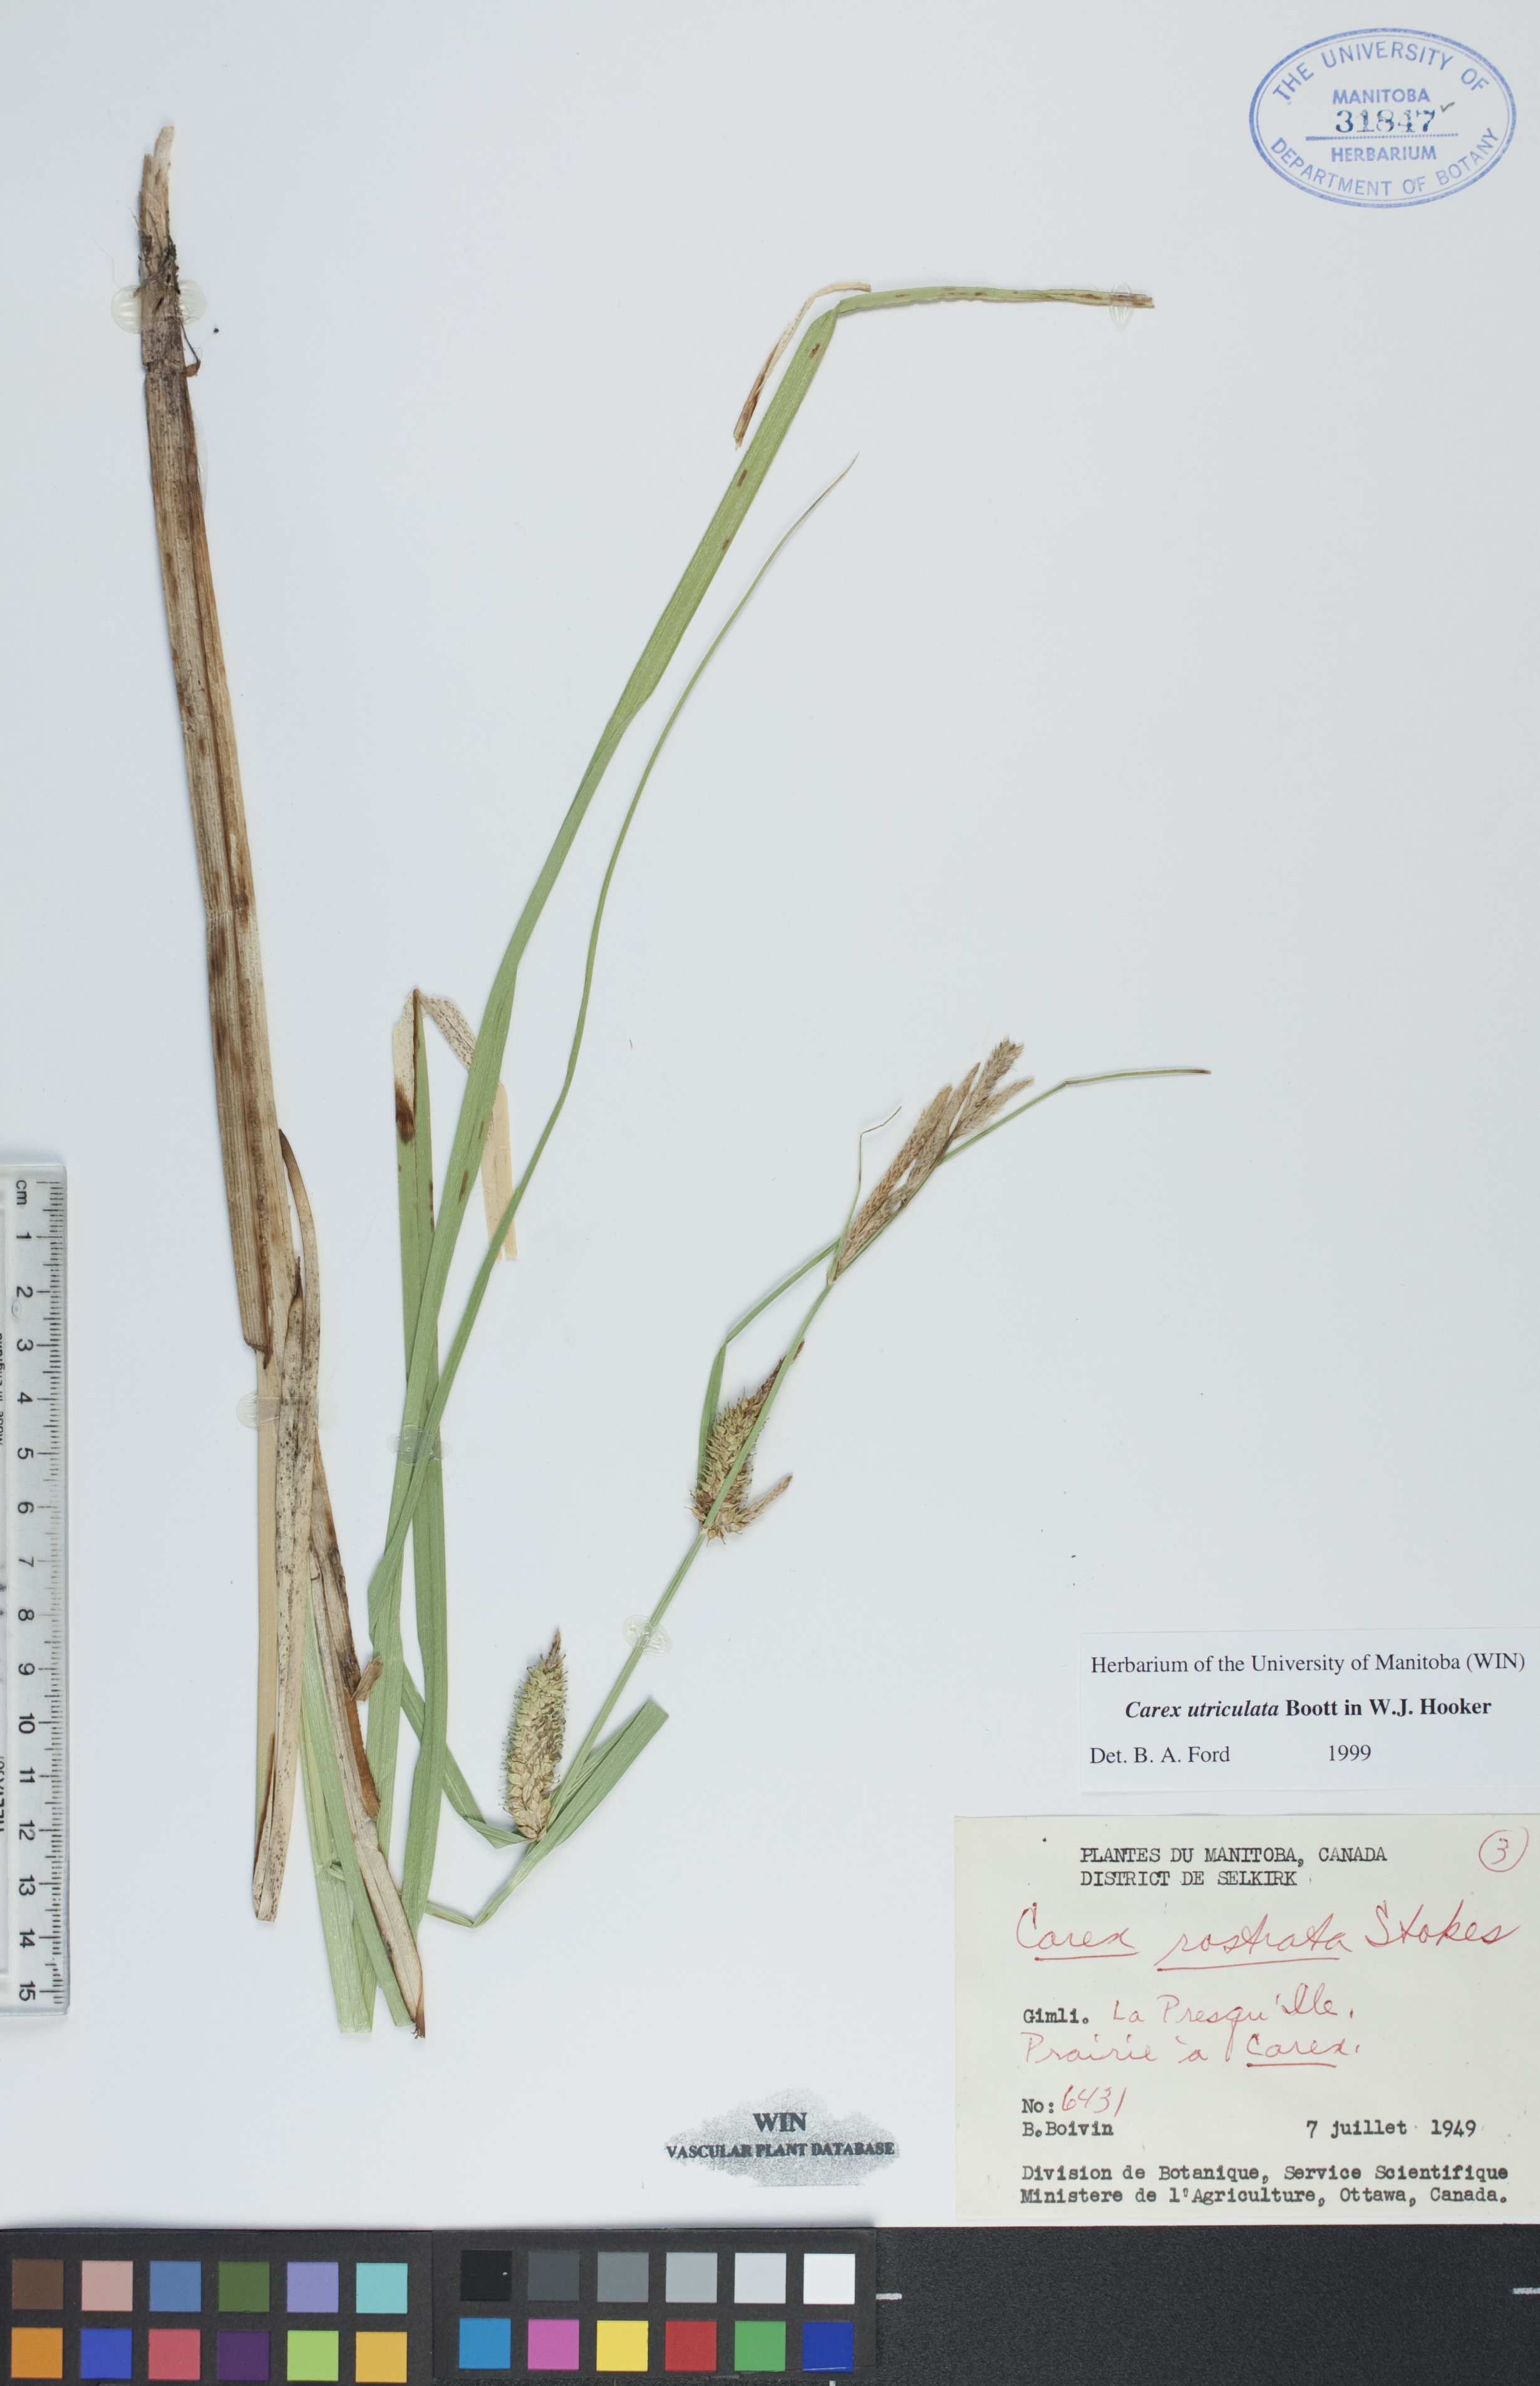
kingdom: Plantae
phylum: Tracheophyta
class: Liliopsida
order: Poales
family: Cyperaceae
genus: Carex
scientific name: Carex utriculata
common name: Beaked sedge
